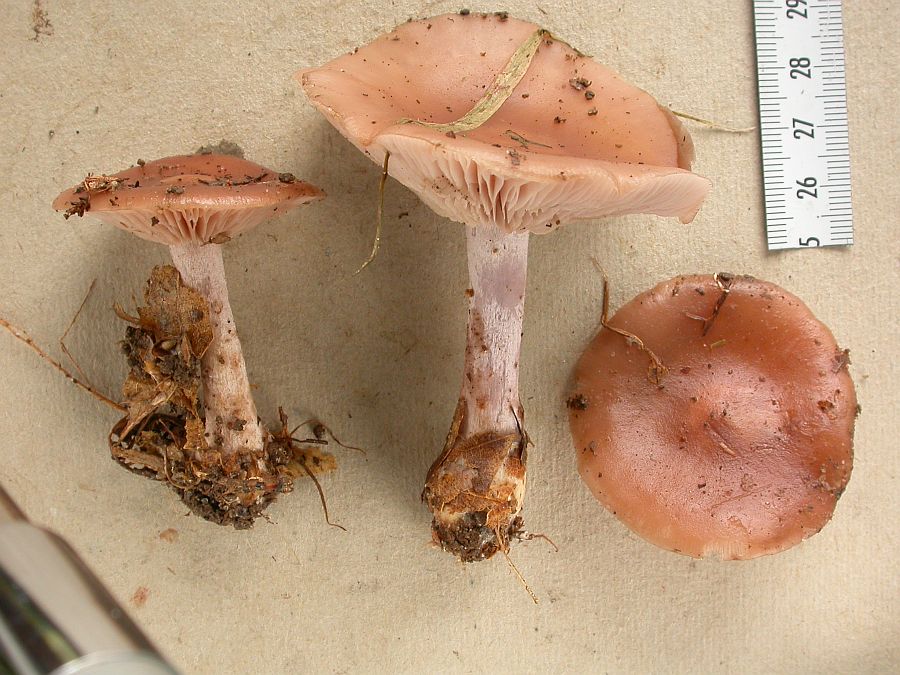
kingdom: Fungi
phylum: Basidiomycota
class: Agaricomycetes
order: Agaricales
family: Tricholomataceae
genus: Lepista
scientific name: Lepista nuda
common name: violet hekseringshat
